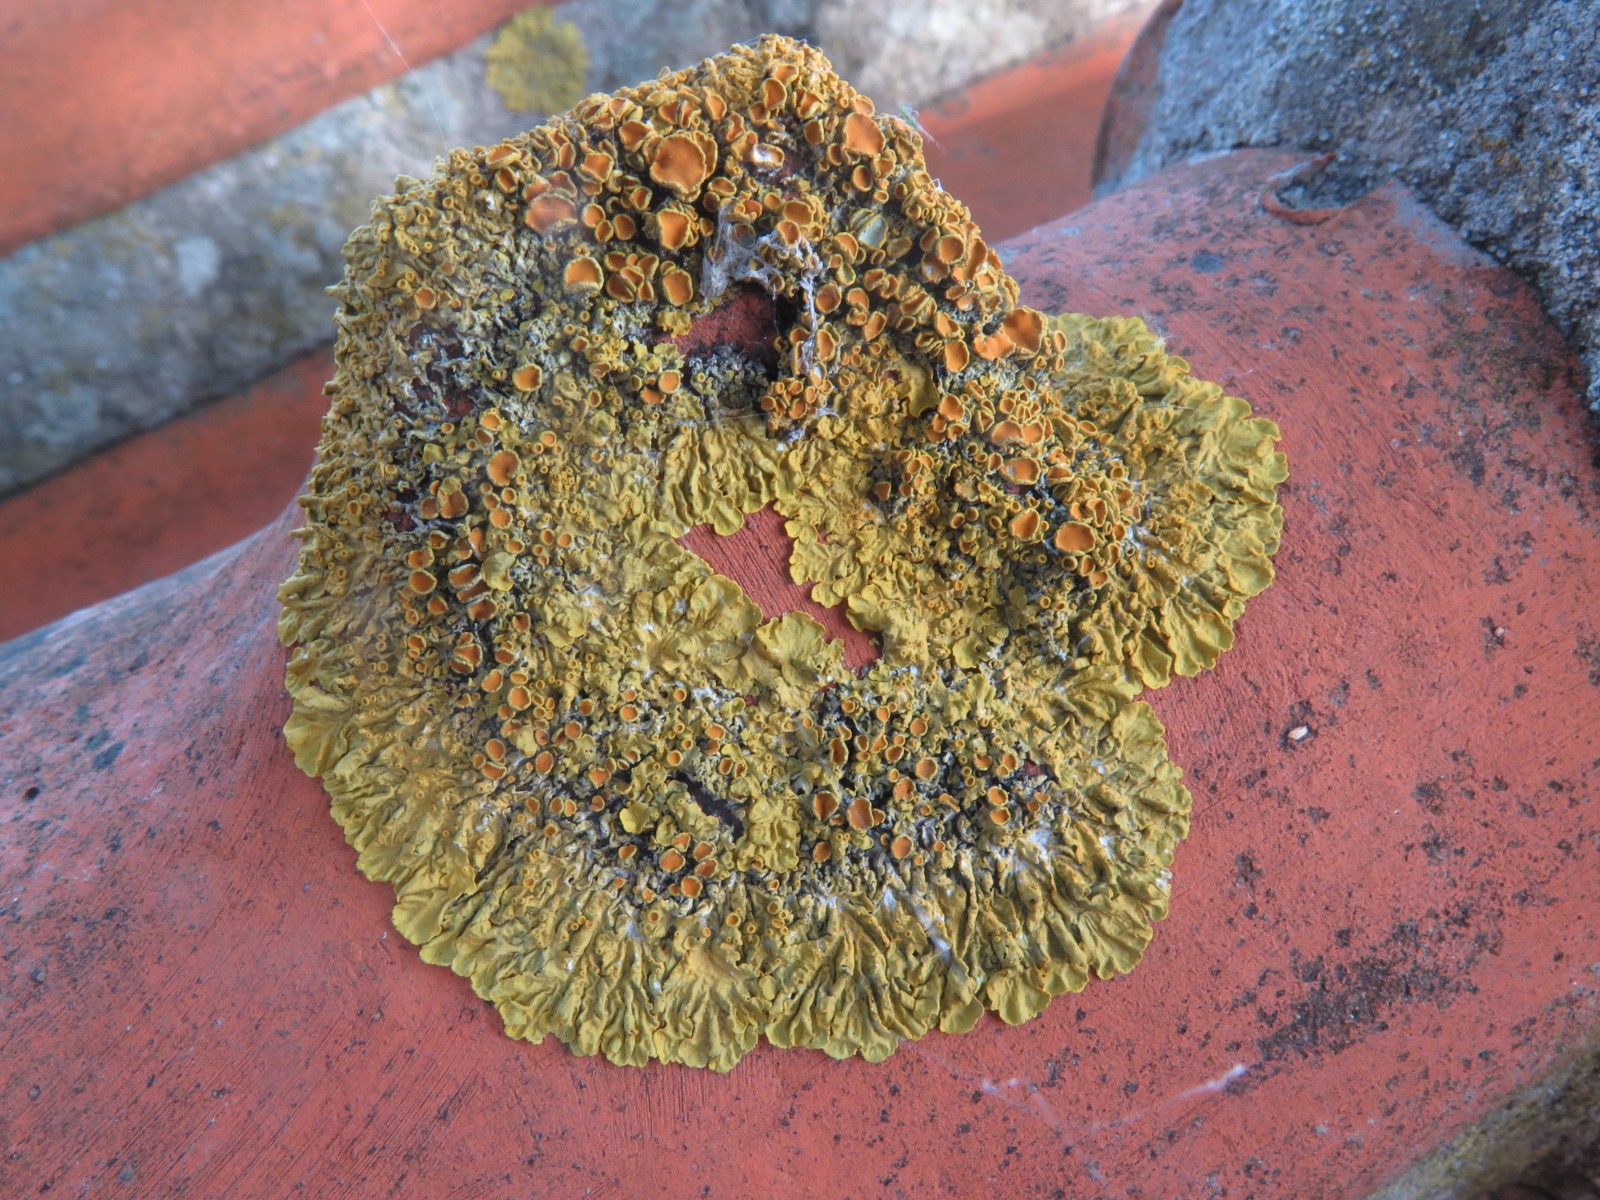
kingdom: Fungi
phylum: Ascomycota
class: Lecanoromycetes
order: Teloschistales
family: Teloschistaceae
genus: Xanthoria
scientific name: Xanthoria parietina
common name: almindelig væggelav
